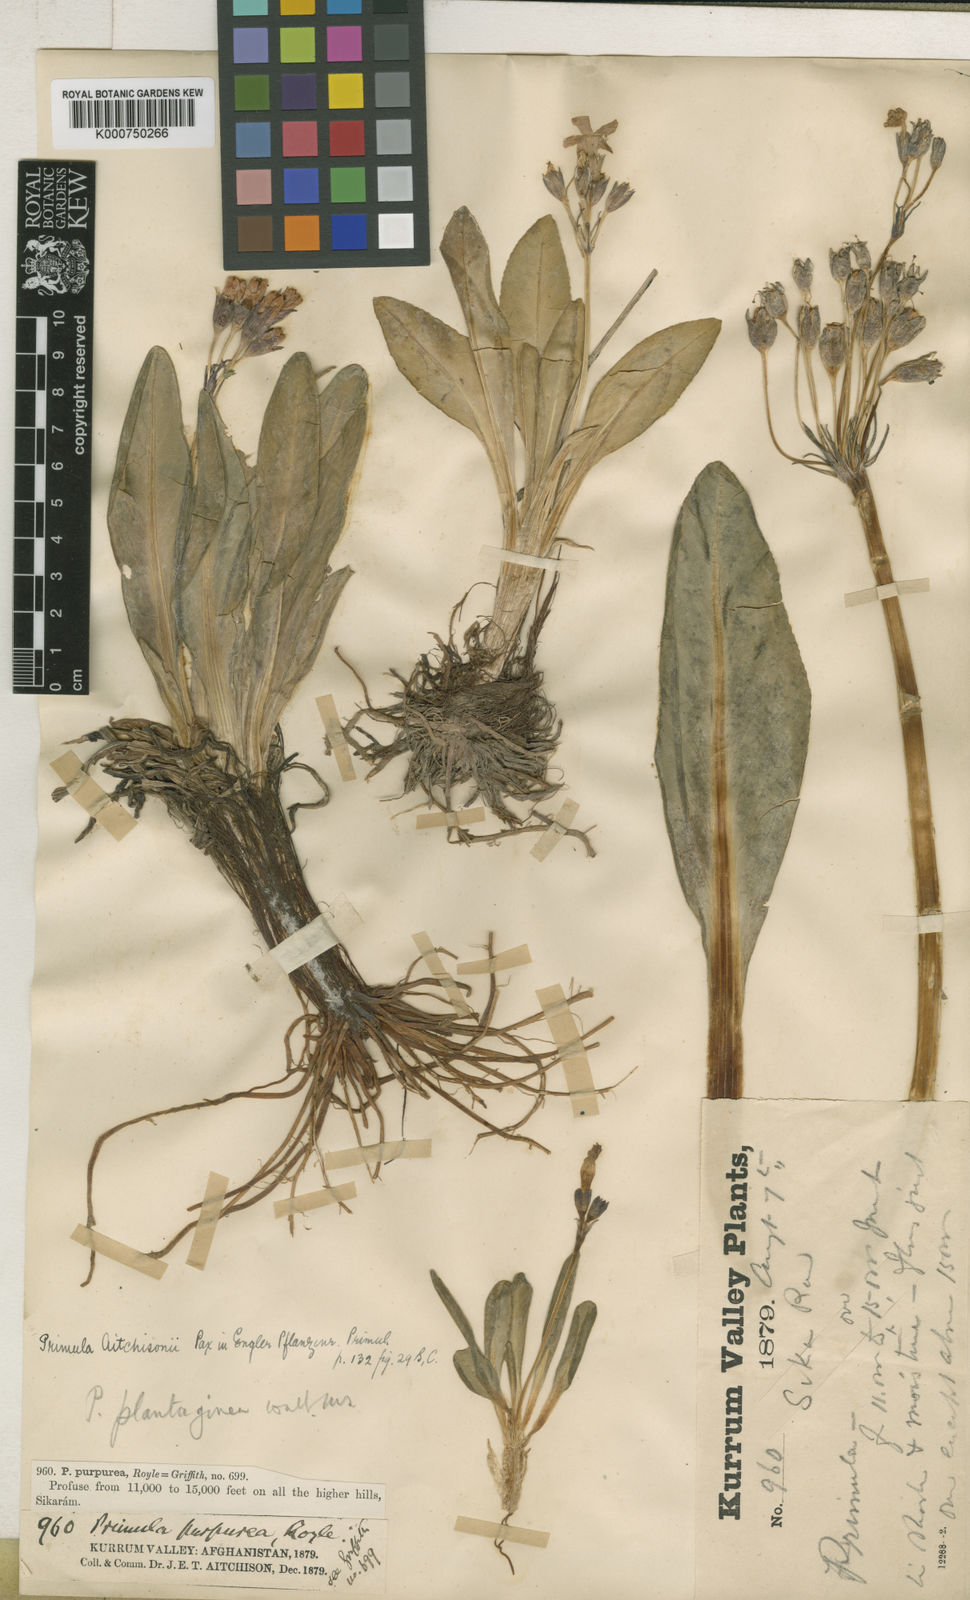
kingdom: Plantae
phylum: Tracheophyta
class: Magnoliopsida
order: Ericales
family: Primulaceae
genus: Primula
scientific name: Primula macrophylla
